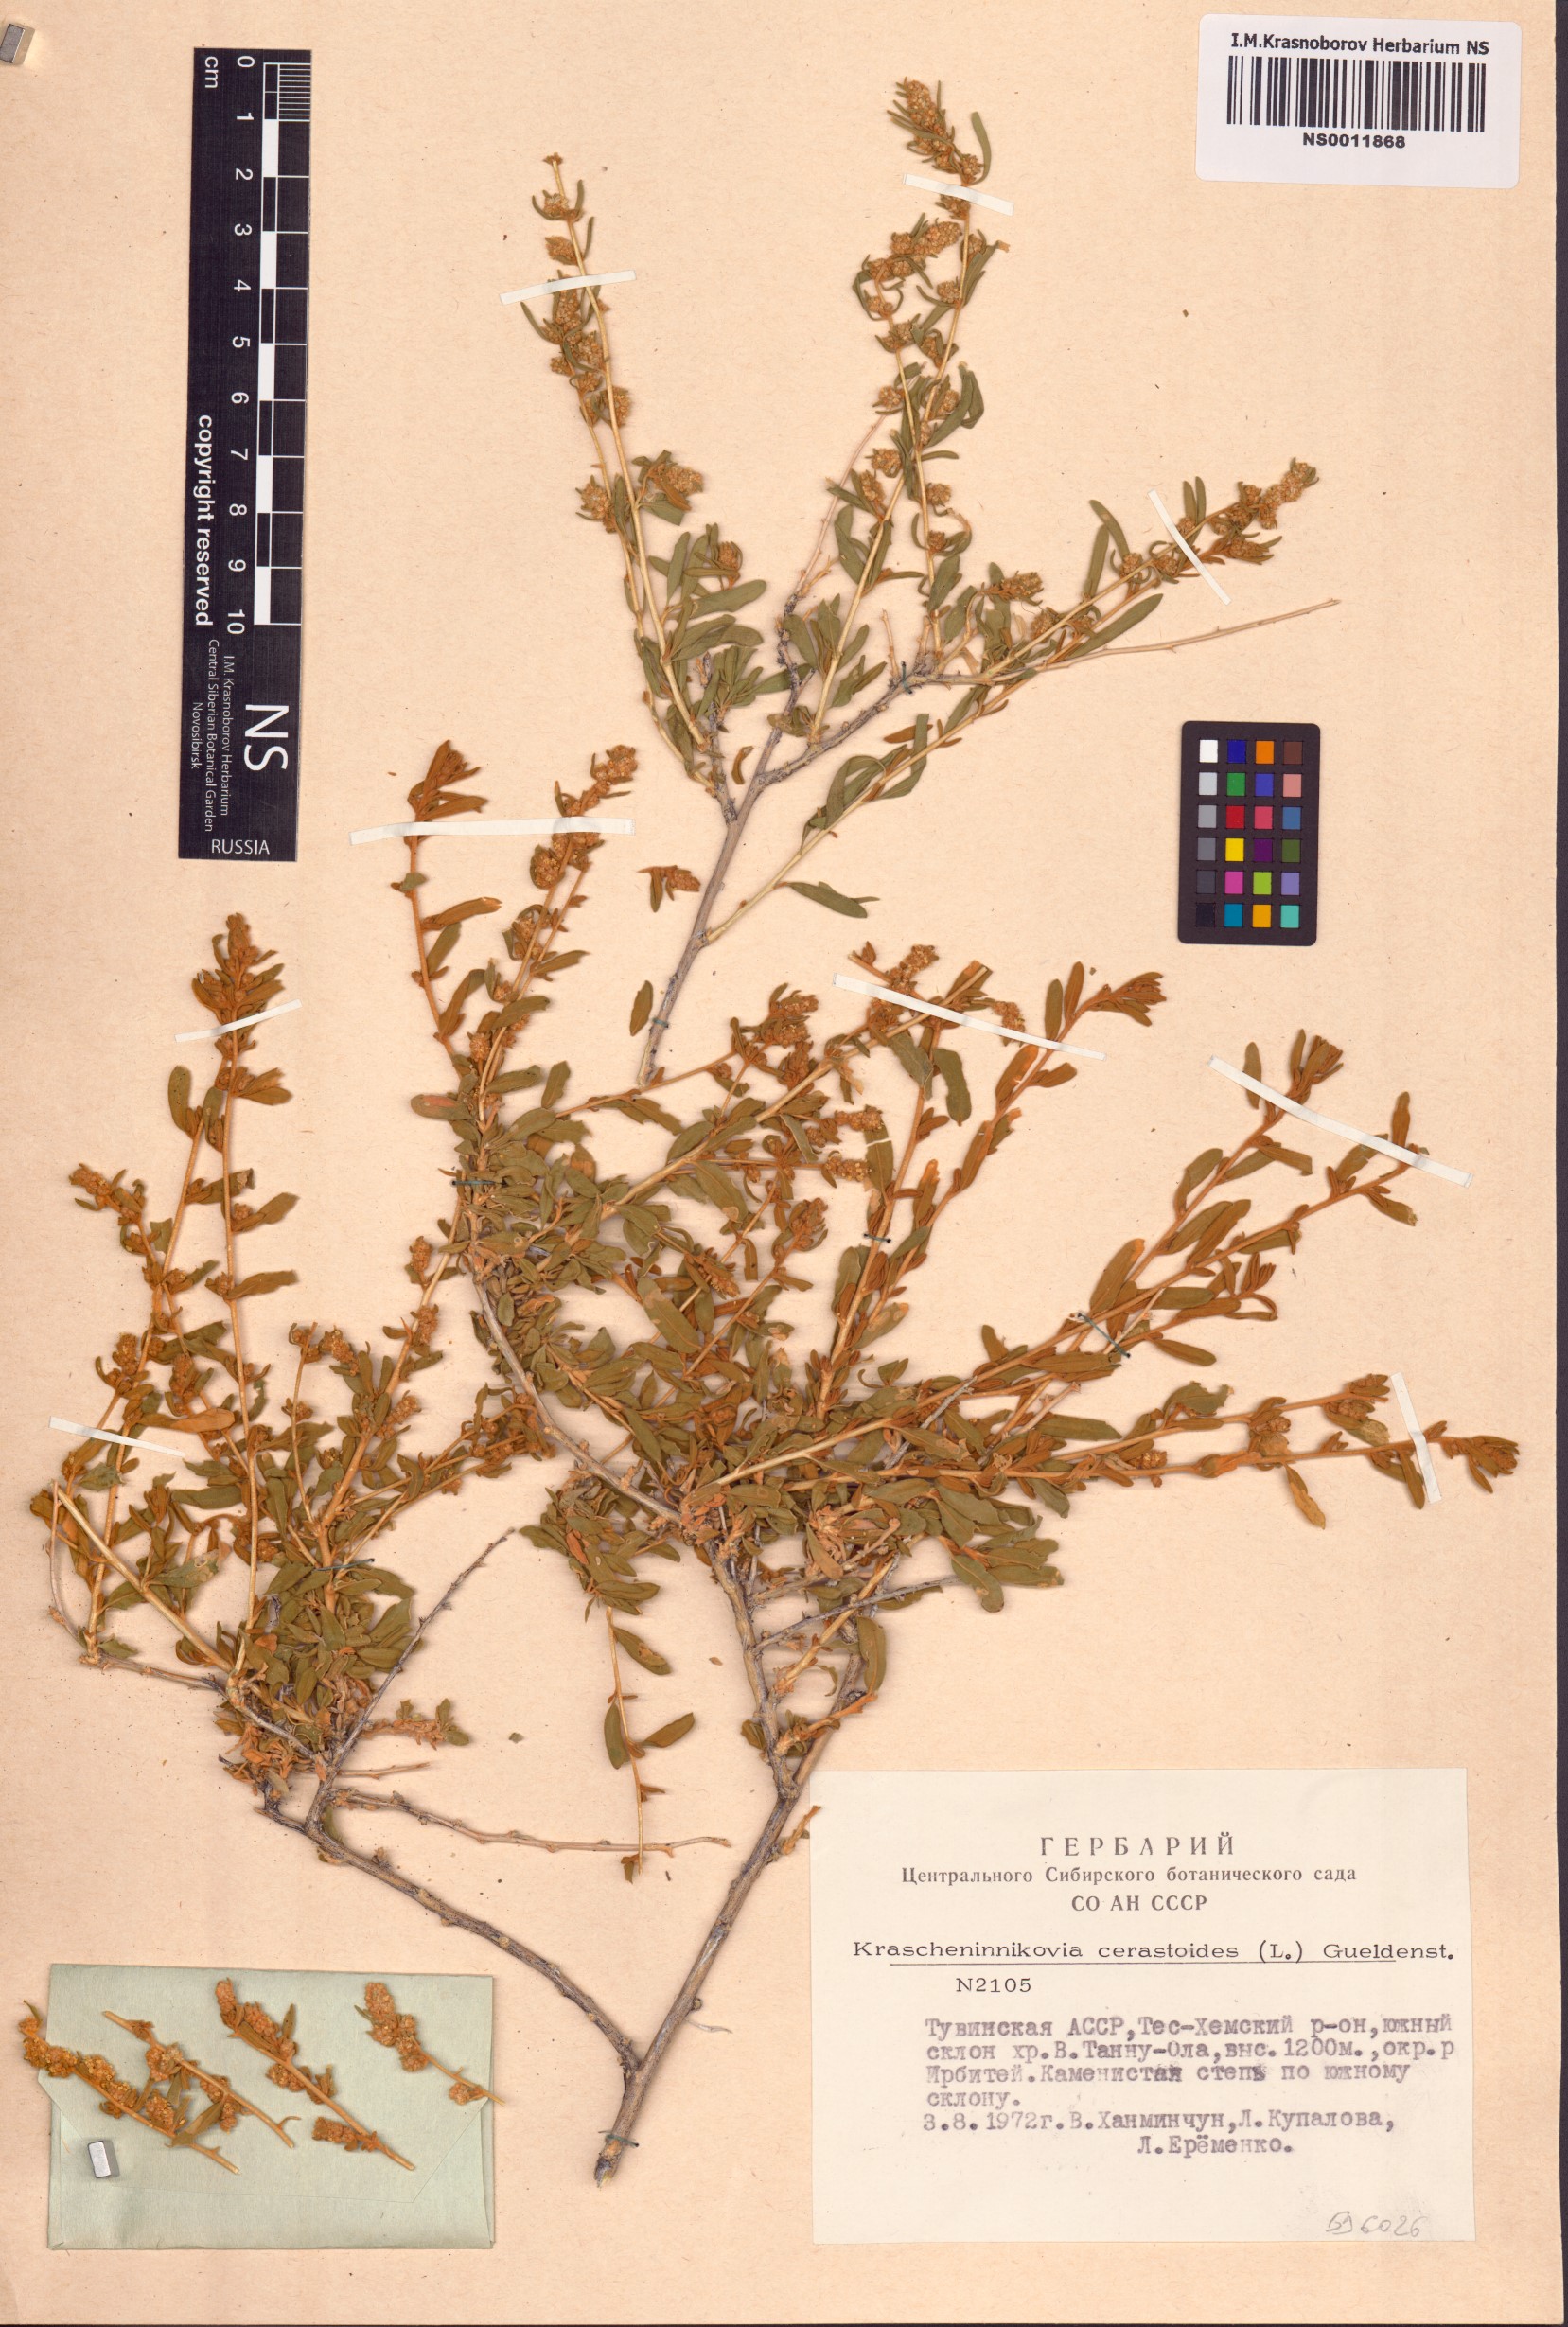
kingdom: Plantae
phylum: Tracheophyta
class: Magnoliopsida
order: Caryophyllales
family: Amaranthaceae
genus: Krascheninnikovia
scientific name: Krascheninnikovia ceratoides
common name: Pamirian winterfat
